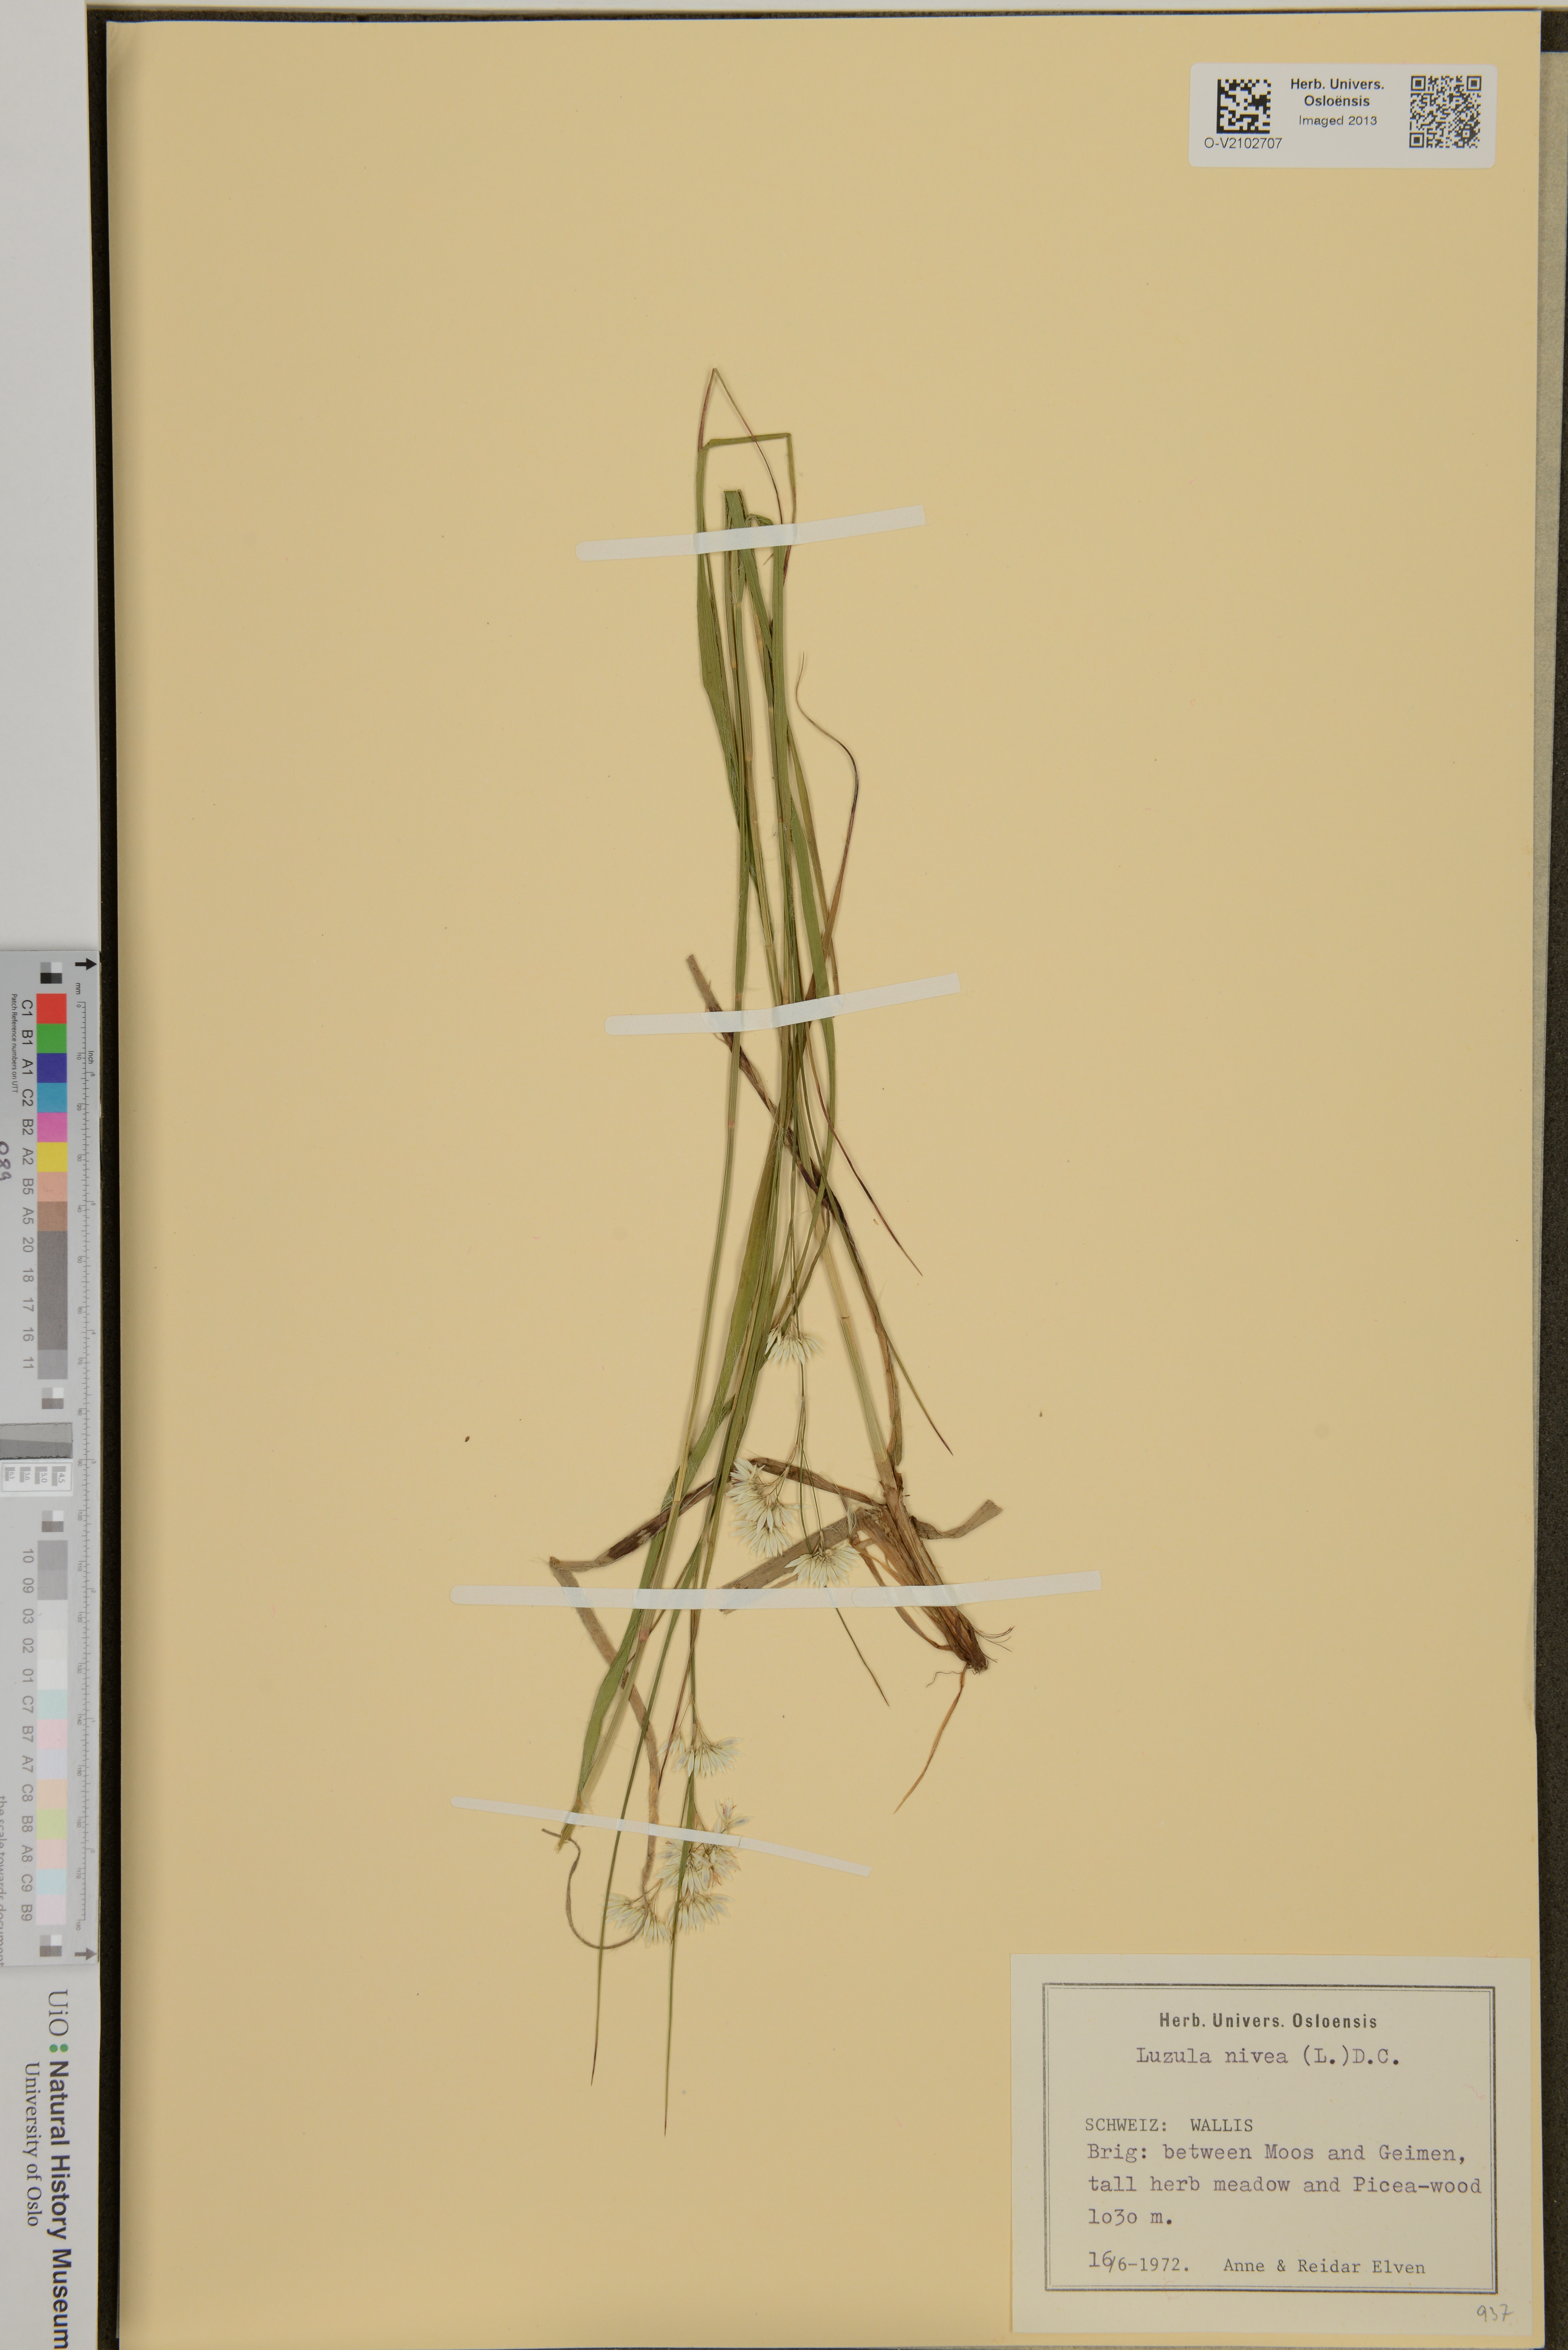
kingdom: Plantae
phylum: Tracheophyta
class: Liliopsida
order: Poales
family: Juncaceae
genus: Luzula
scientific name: Luzula nivea
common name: Snow-white wood-rush
